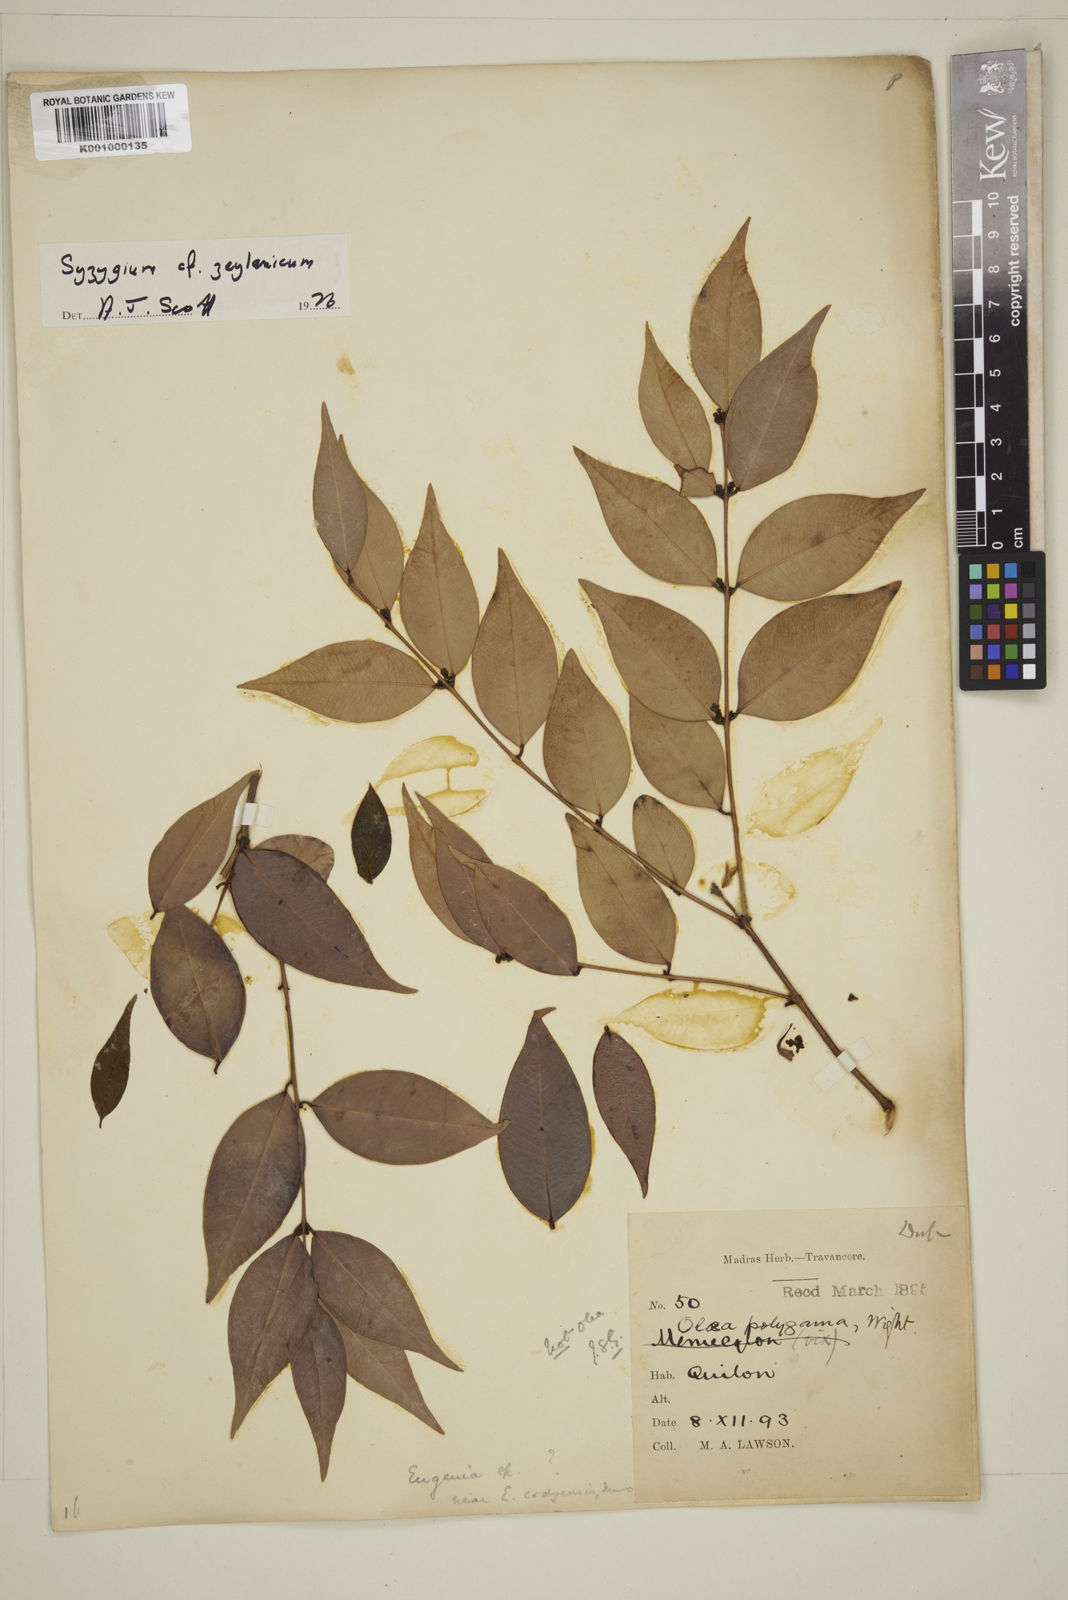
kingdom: Plantae
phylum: Tracheophyta
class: Magnoliopsida
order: Myrtales
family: Myrtaceae
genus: Eugenia
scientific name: Eugenia
